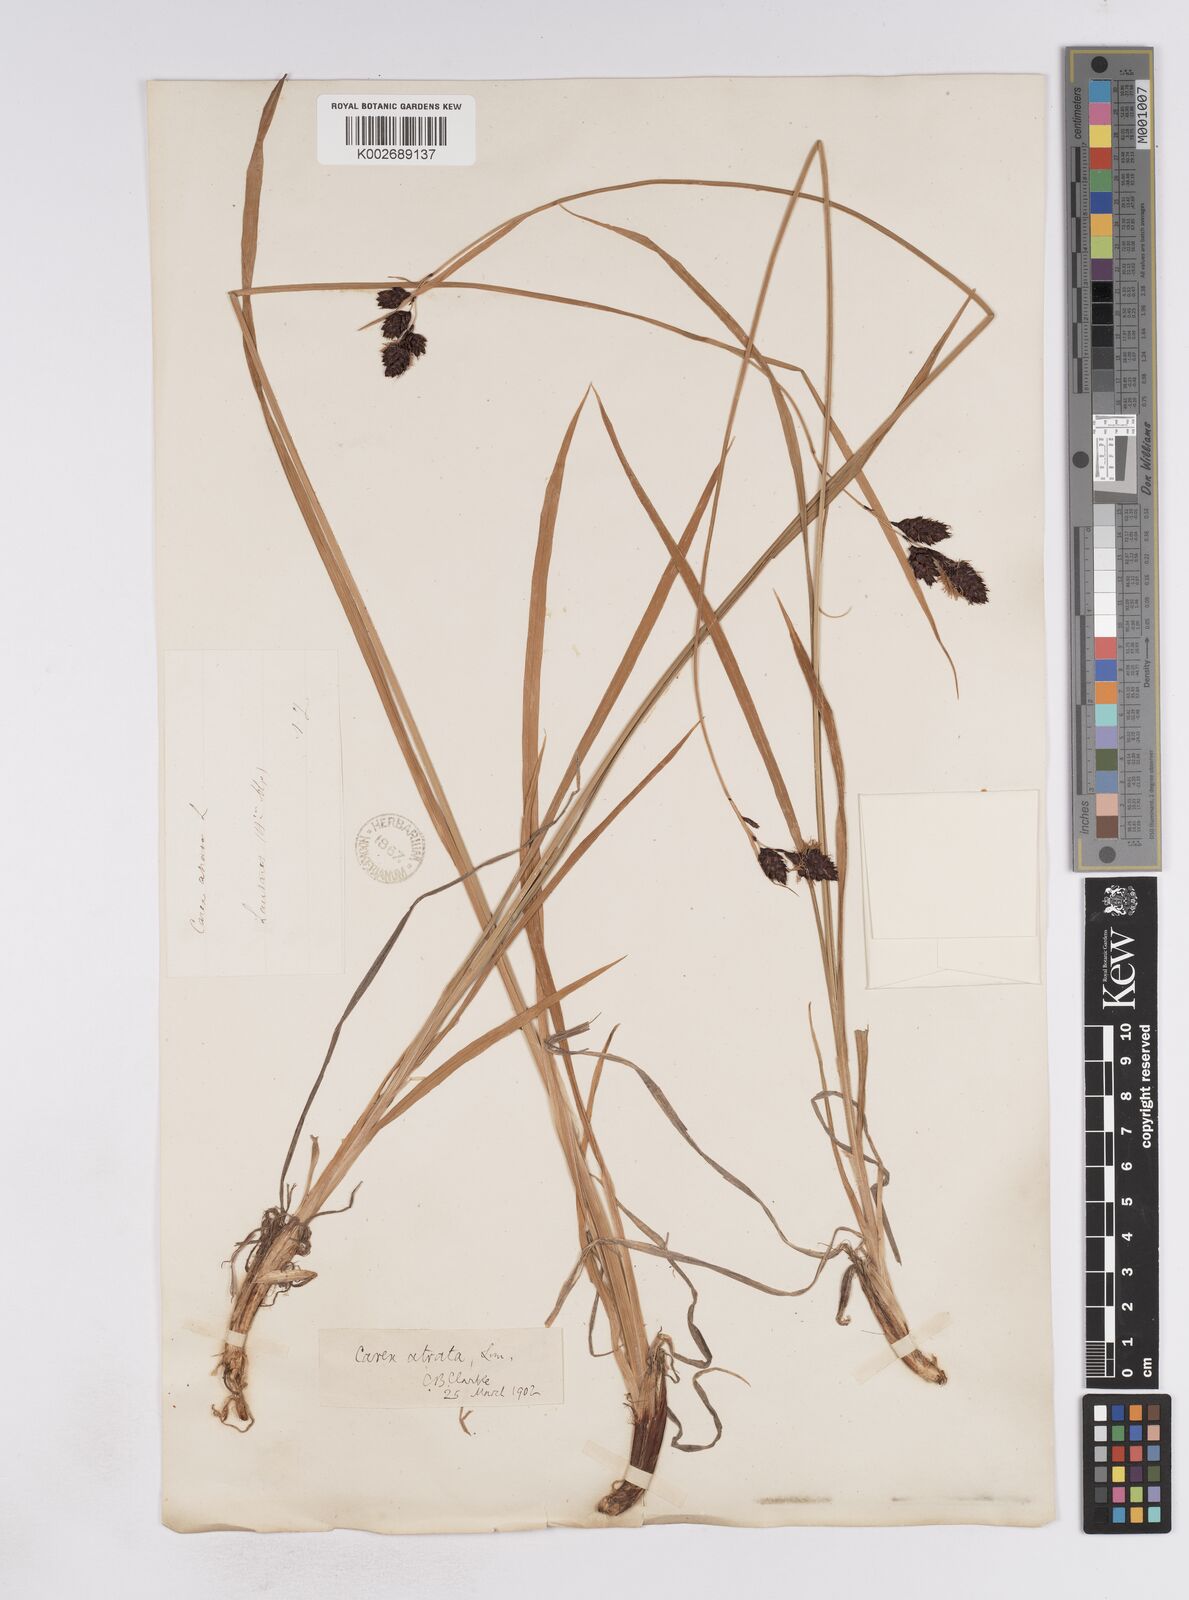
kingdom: Plantae
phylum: Tracheophyta
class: Liliopsida
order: Poales
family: Cyperaceae
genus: Carex
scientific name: Carex aterrima
